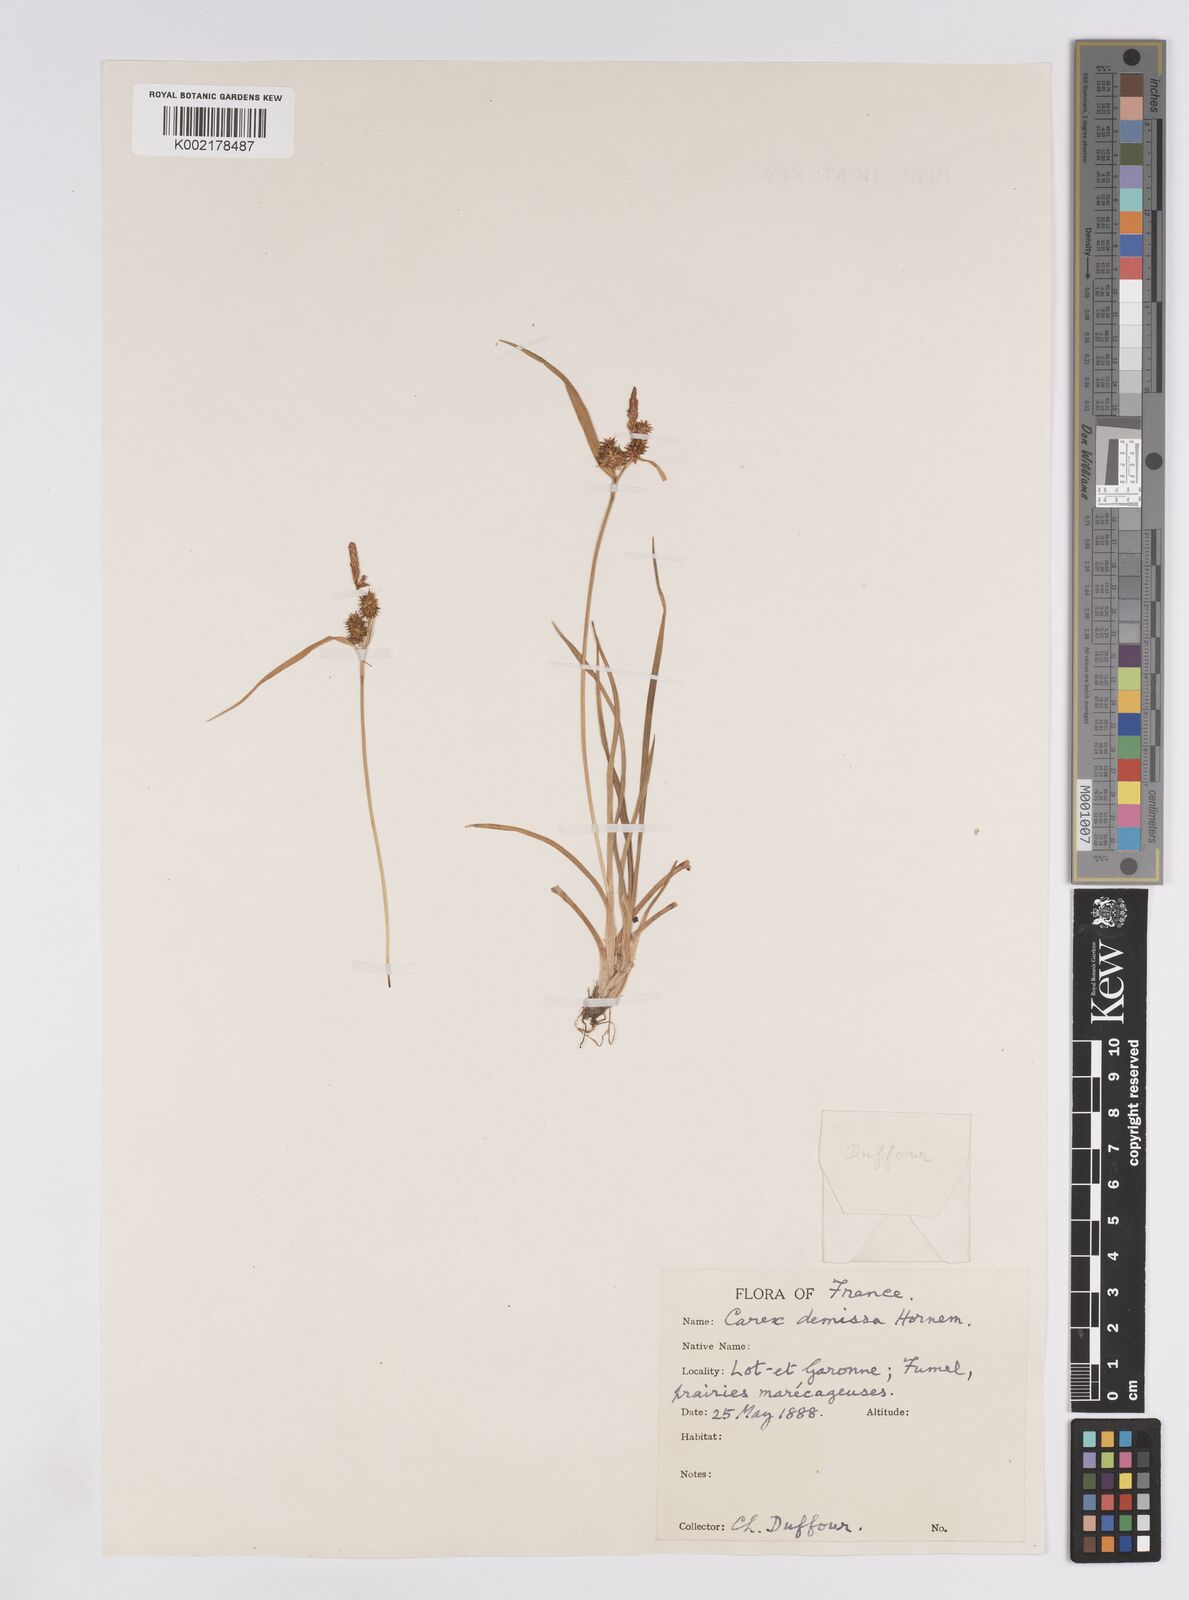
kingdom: Plantae
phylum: Tracheophyta
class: Liliopsida
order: Poales
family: Cyperaceae
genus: Carex
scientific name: Carex demissa
